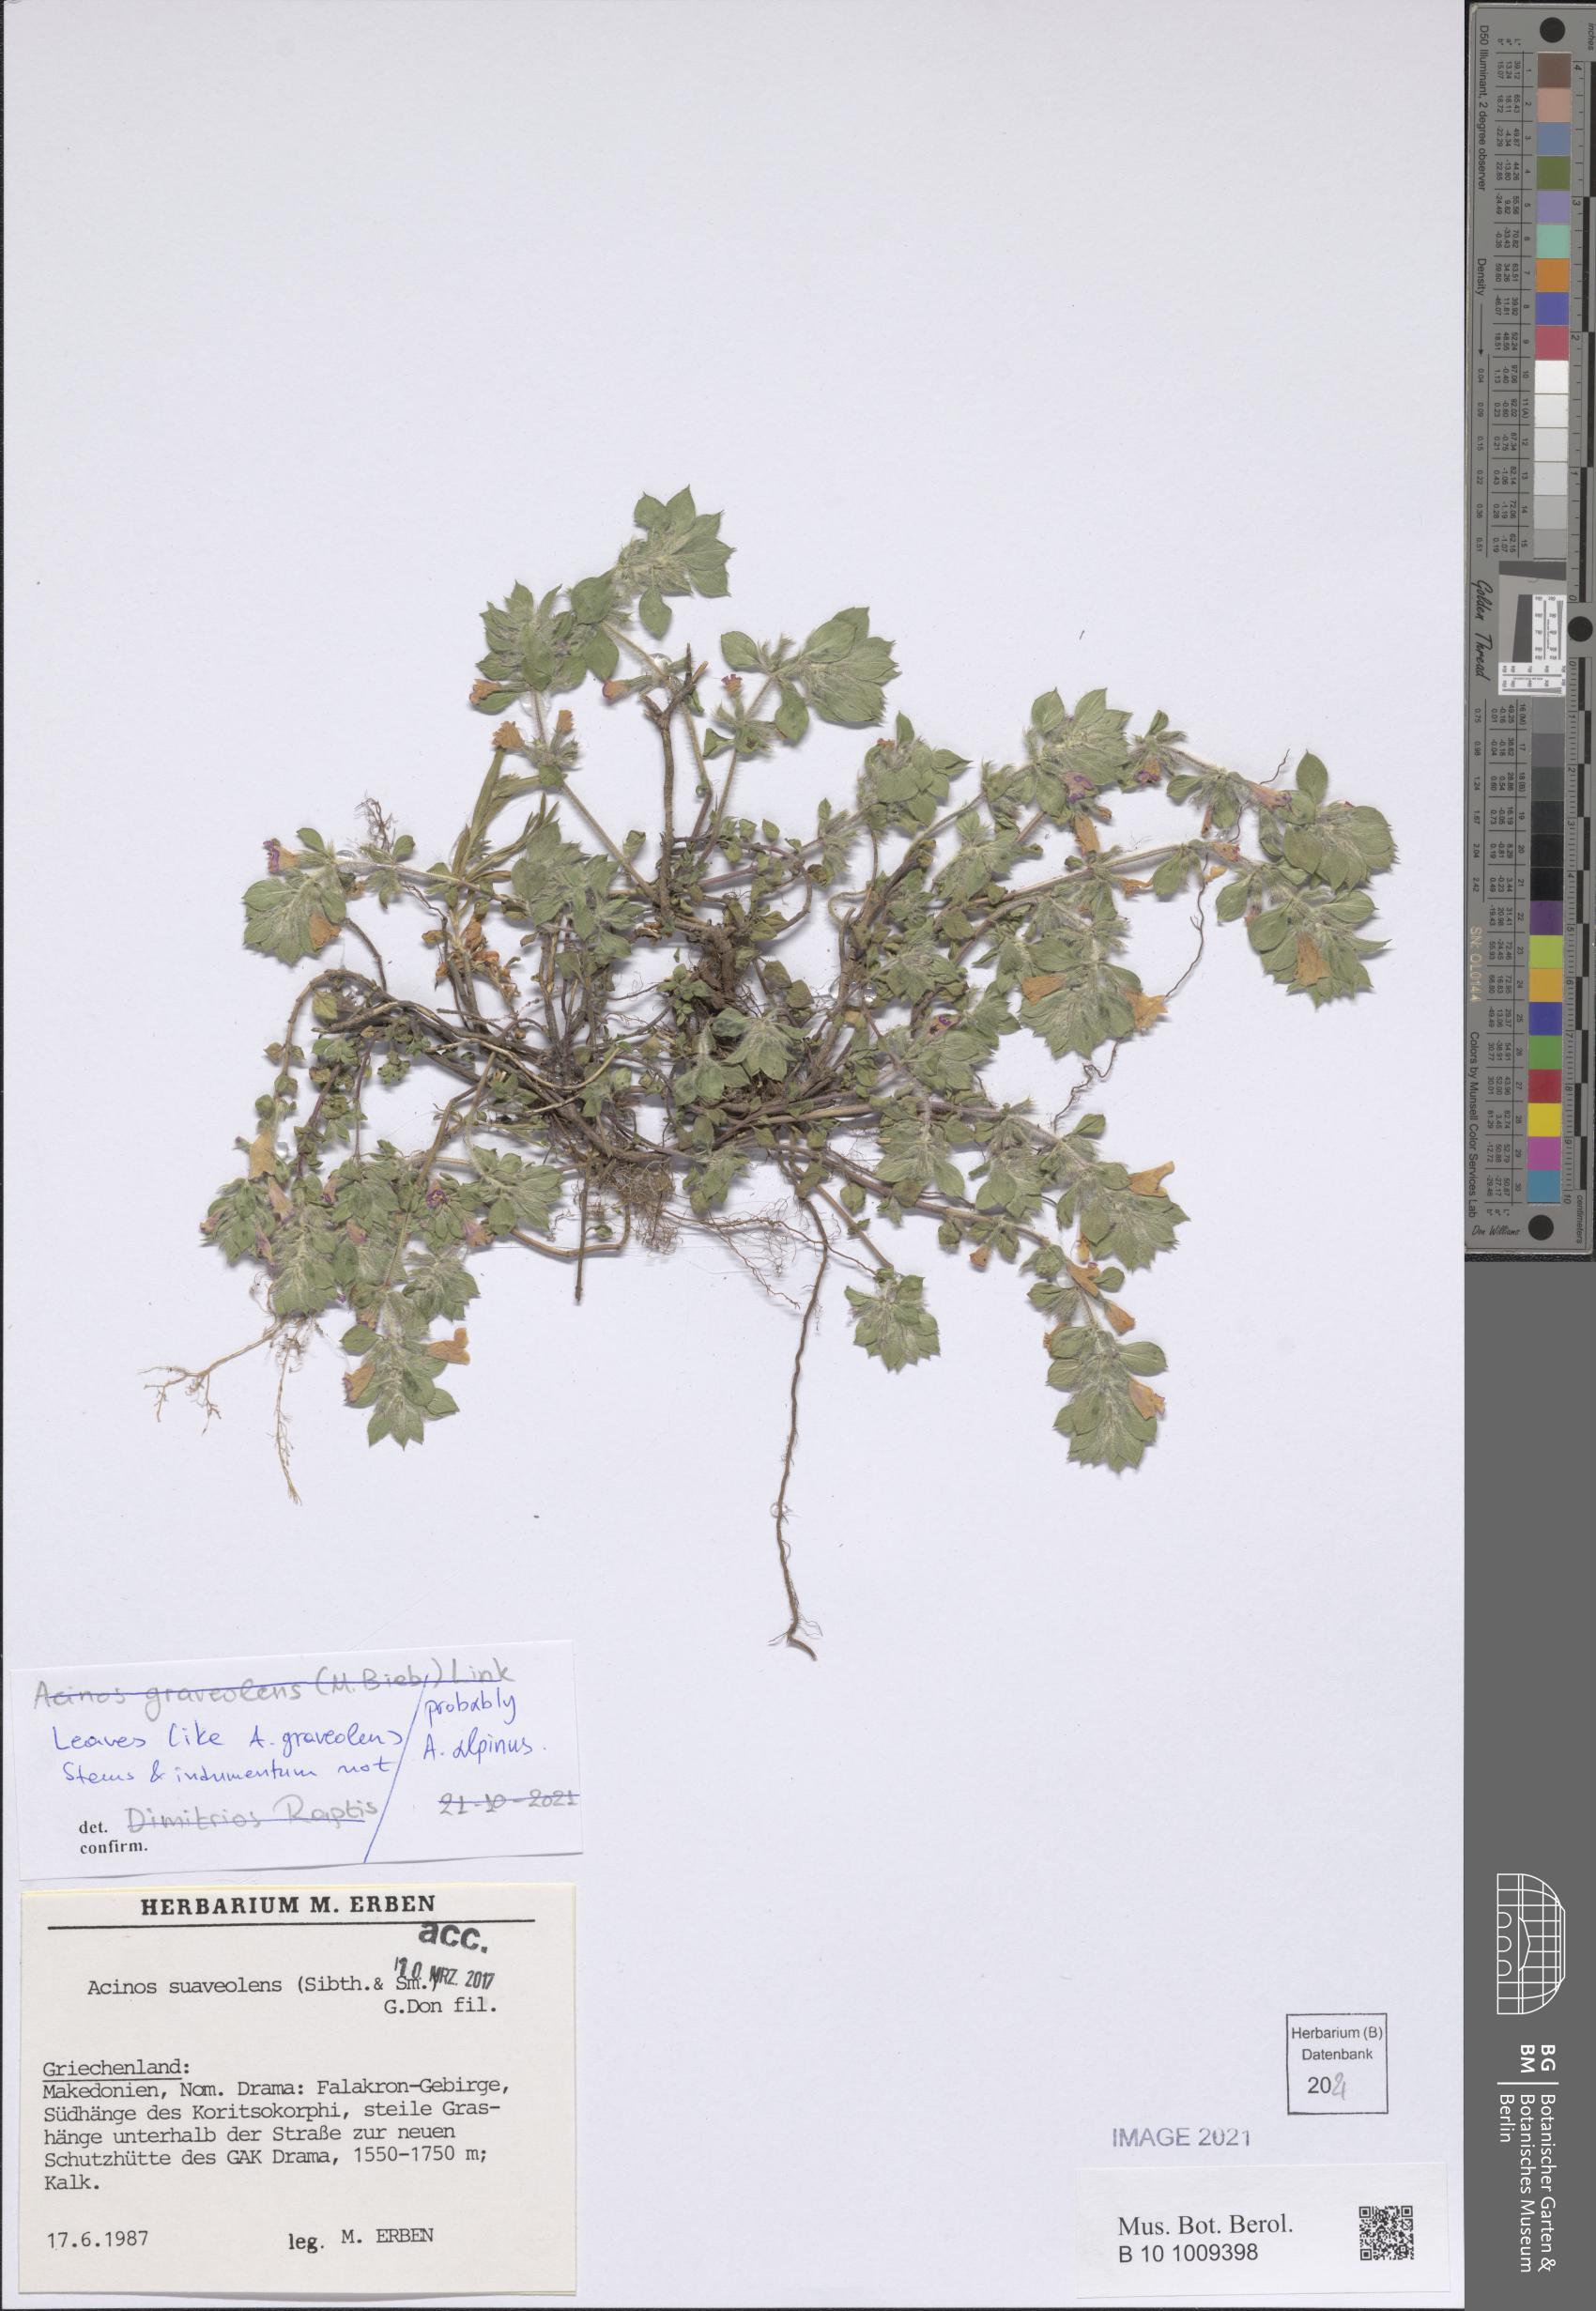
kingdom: Plantae
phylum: Tracheophyta
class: Magnoliopsida
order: Lamiales
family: Lamiaceae
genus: Clinopodium
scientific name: Clinopodium alpinum
